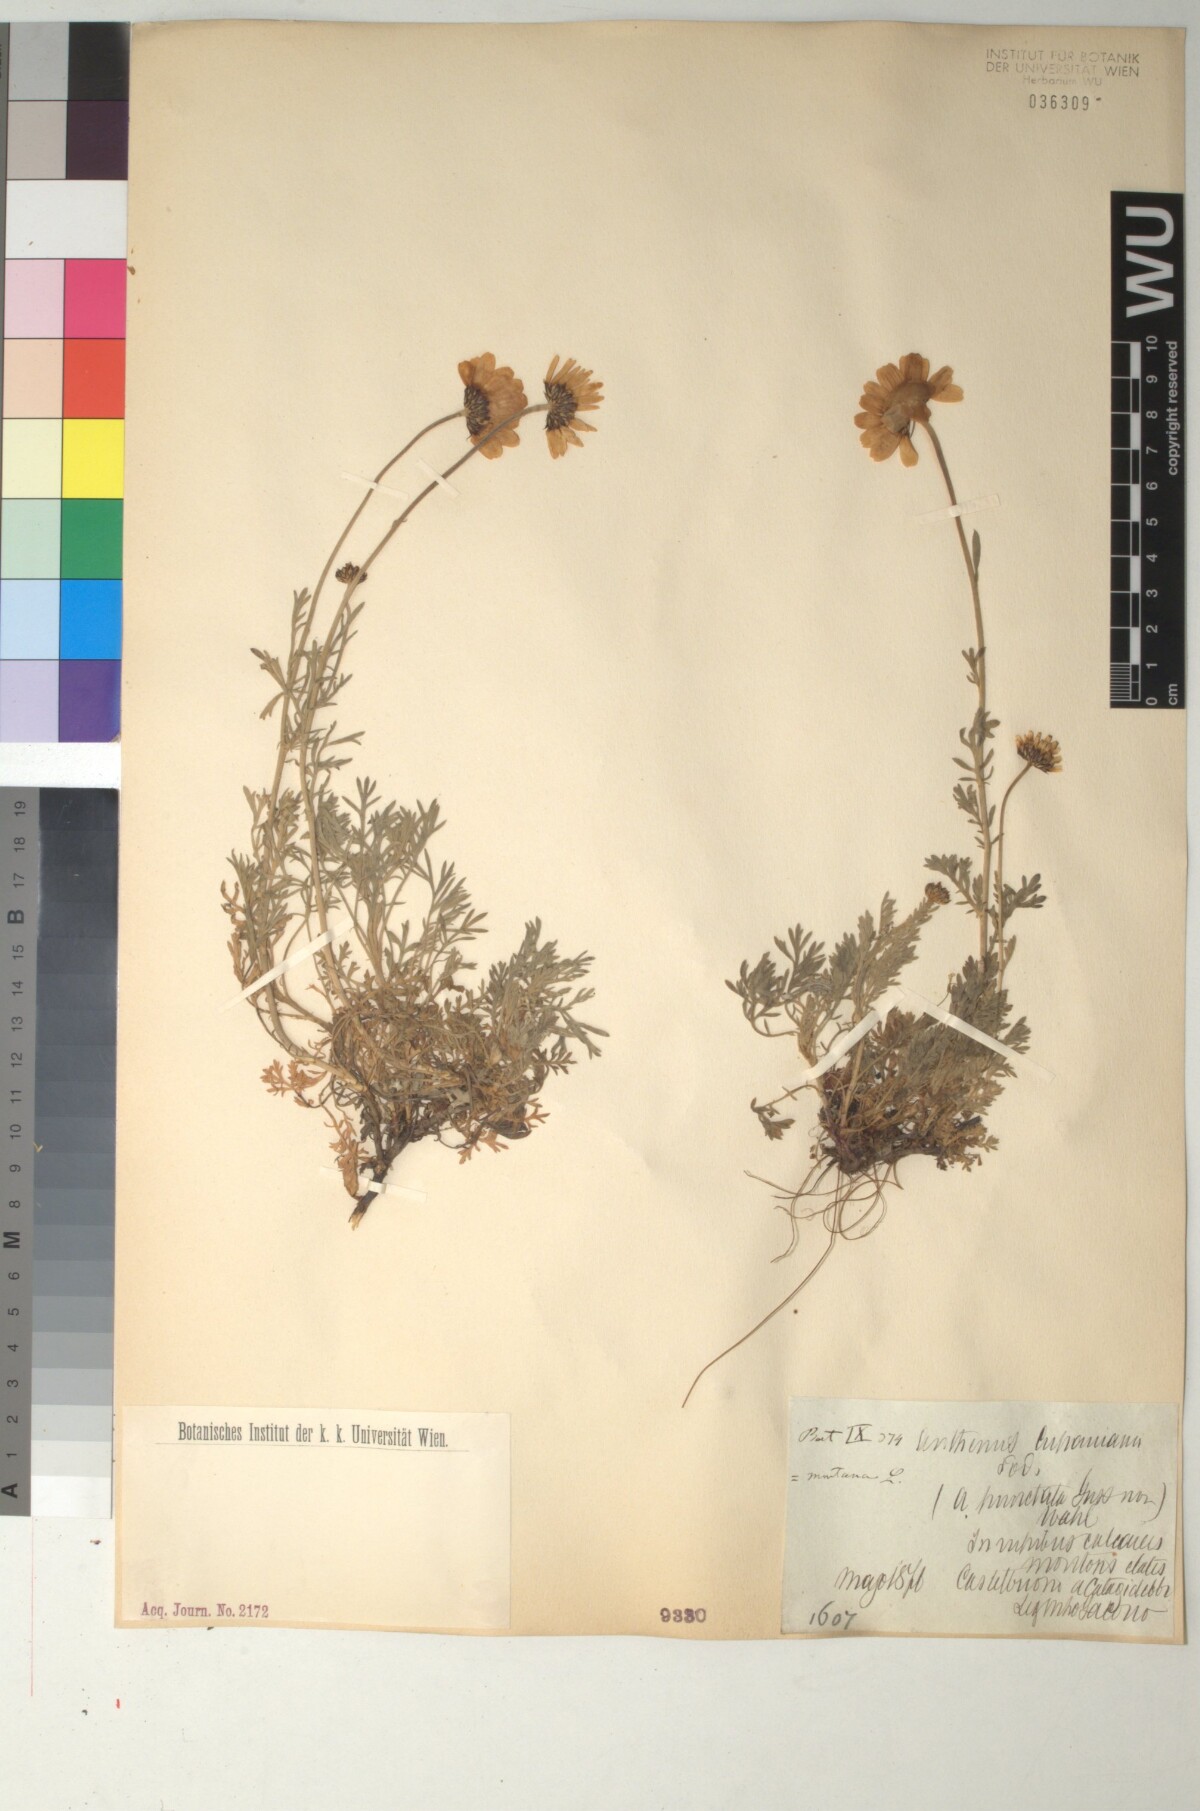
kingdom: Plantae
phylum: Tracheophyta
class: Magnoliopsida
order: Asterales
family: Asteraceae
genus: Anthemis
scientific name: Anthemis cupaniana
